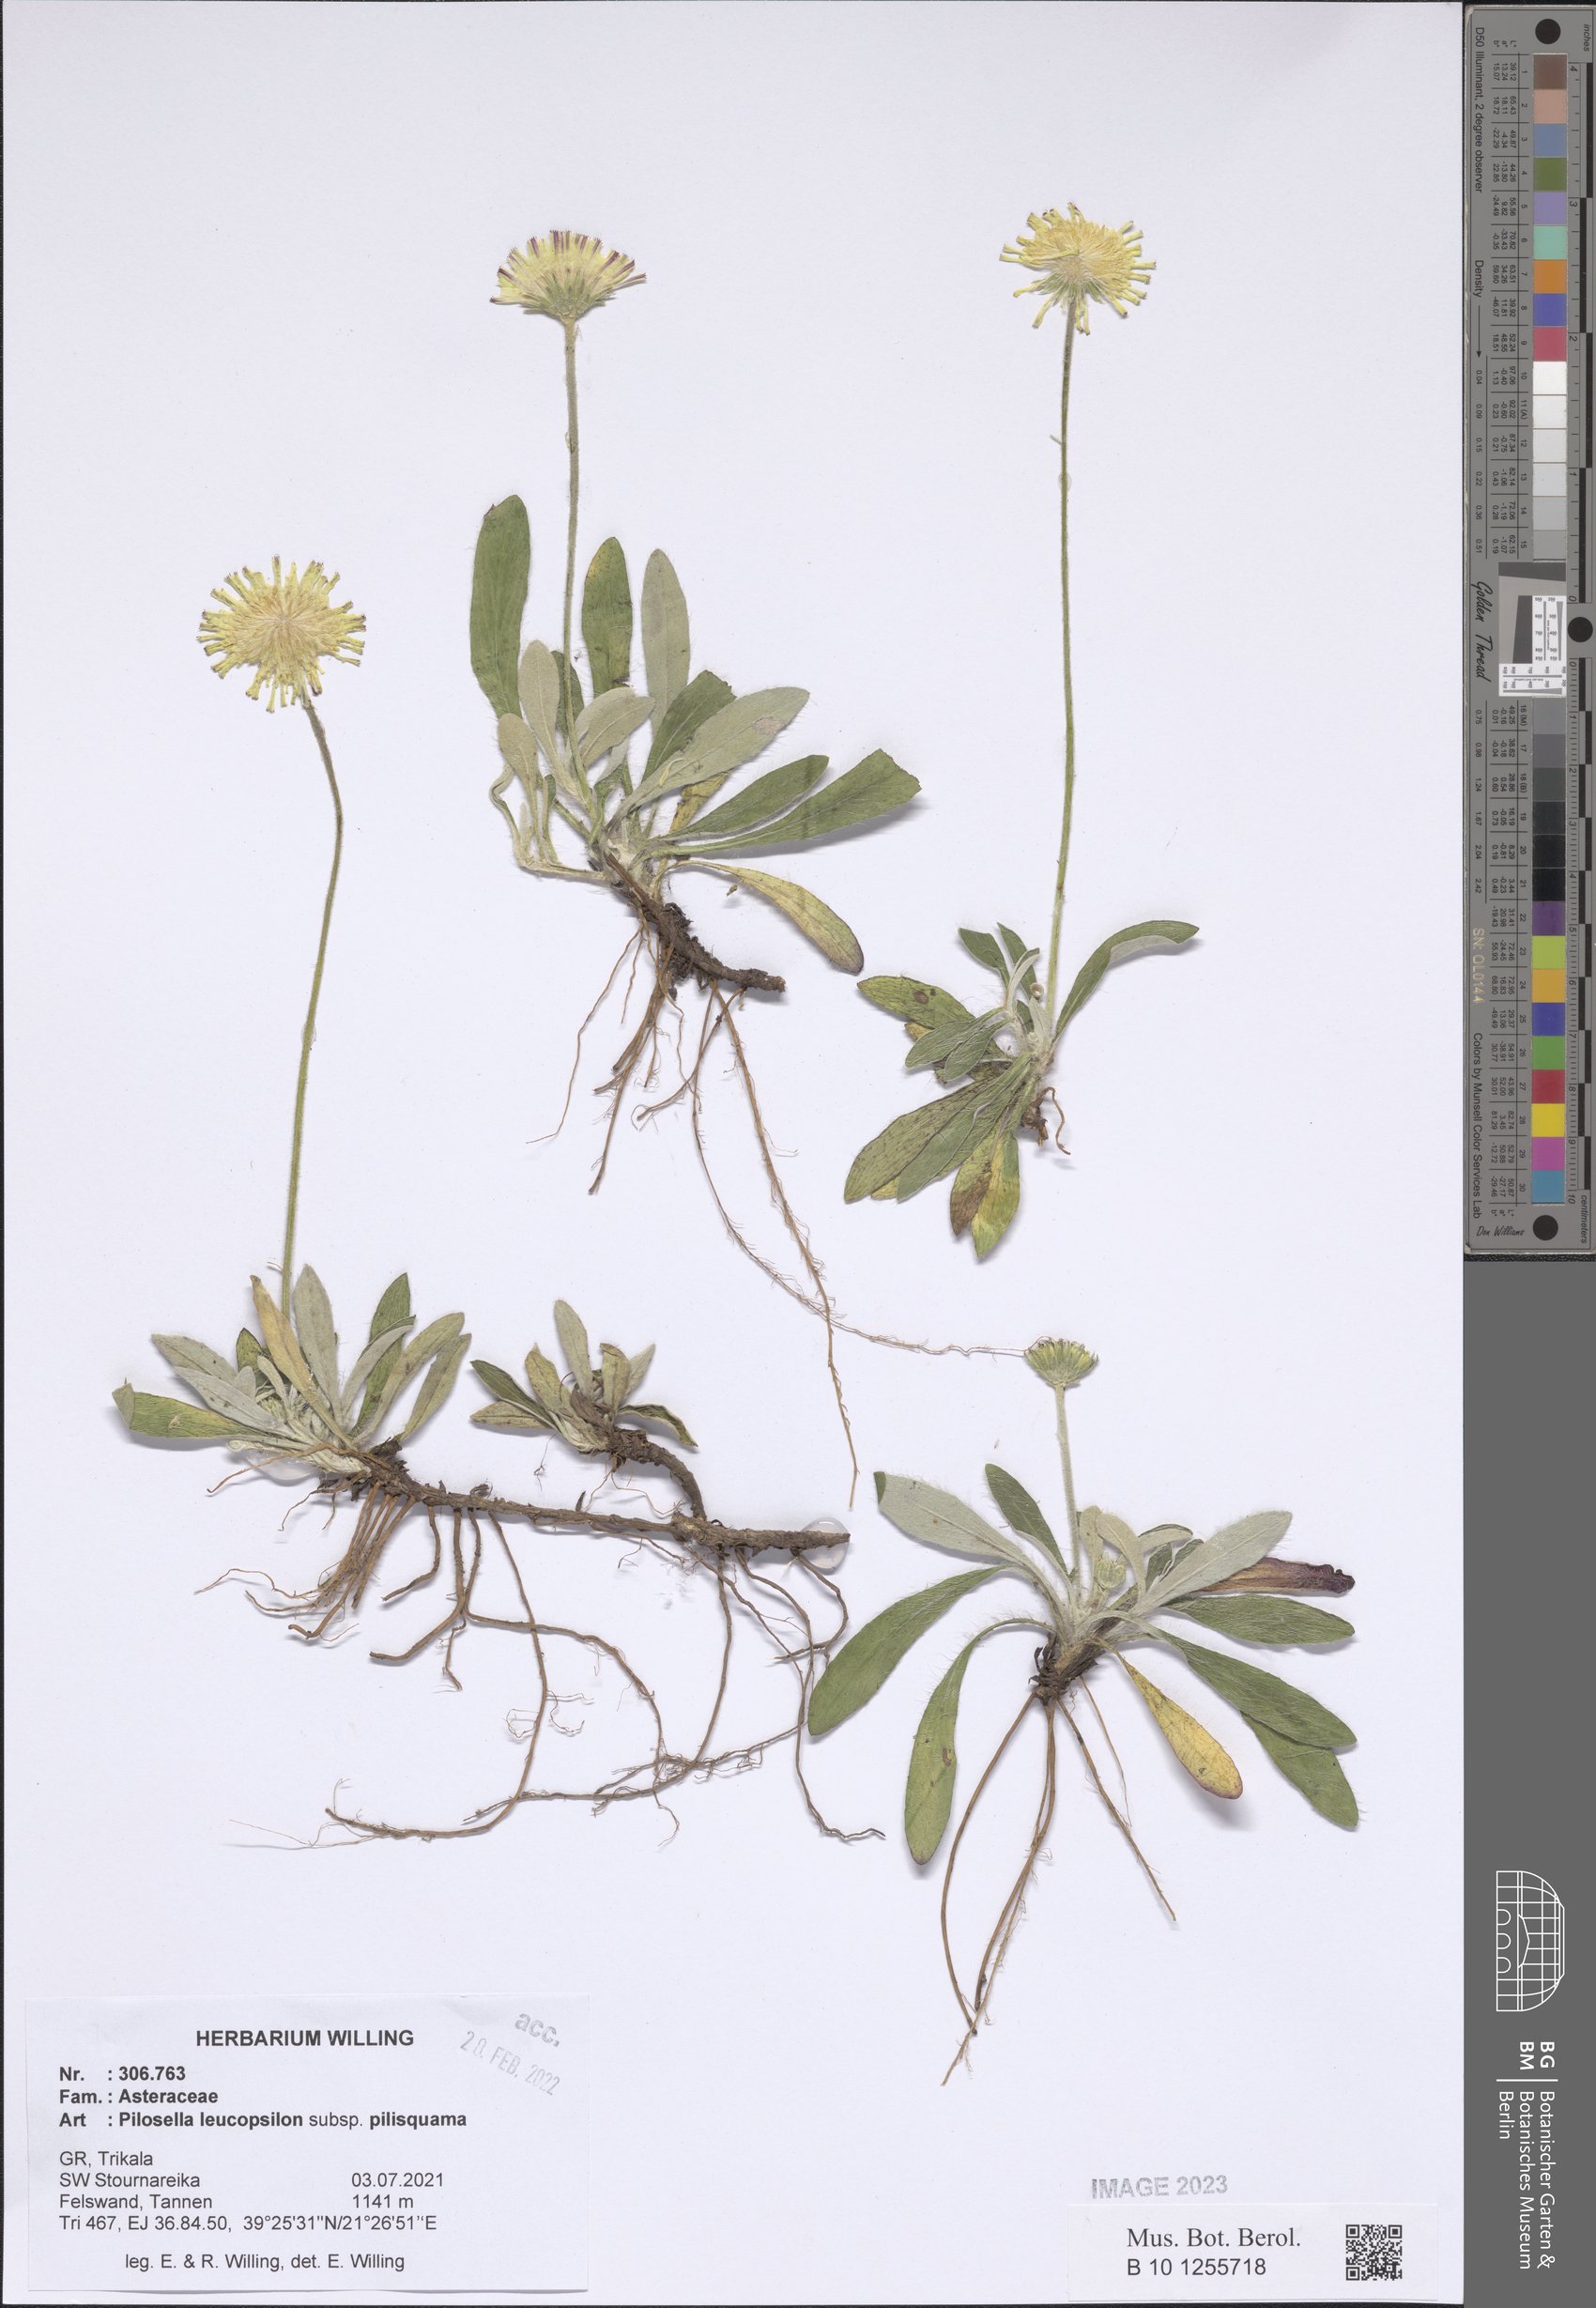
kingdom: Plantae
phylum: Tracheophyta
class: Magnoliopsida
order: Asterales
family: Asteraceae
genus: Pilosella
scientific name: Pilosella leucopsilon
